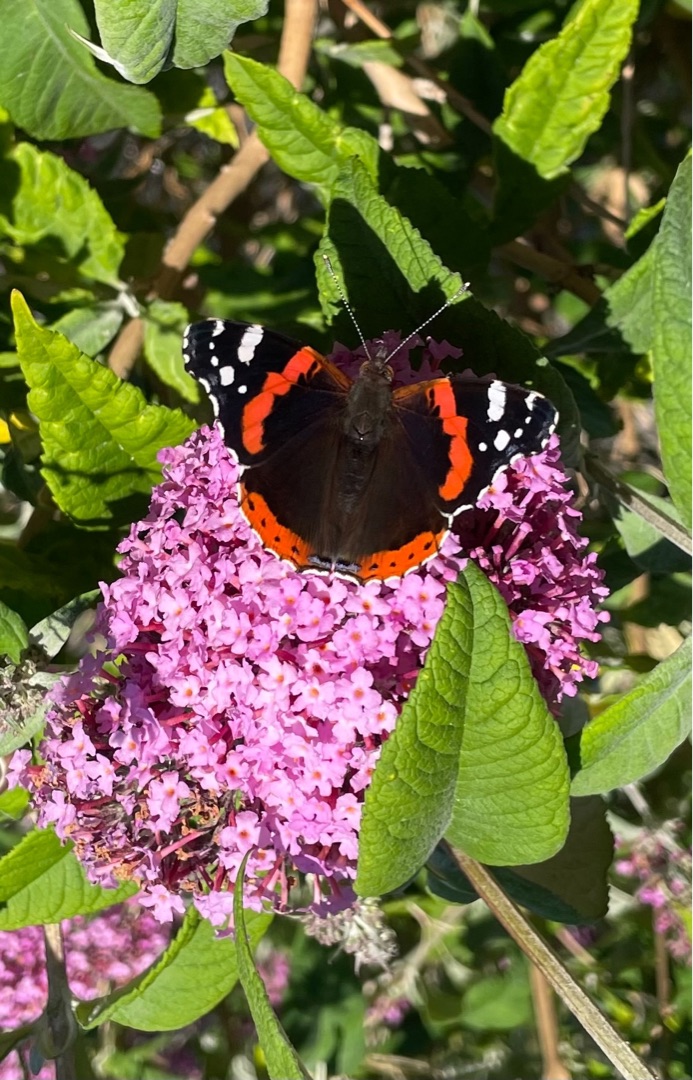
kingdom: Animalia
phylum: Arthropoda
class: Insecta
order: Lepidoptera
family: Nymphalidae
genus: Vanessa
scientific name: Vanessa atalanta
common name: Admiral
